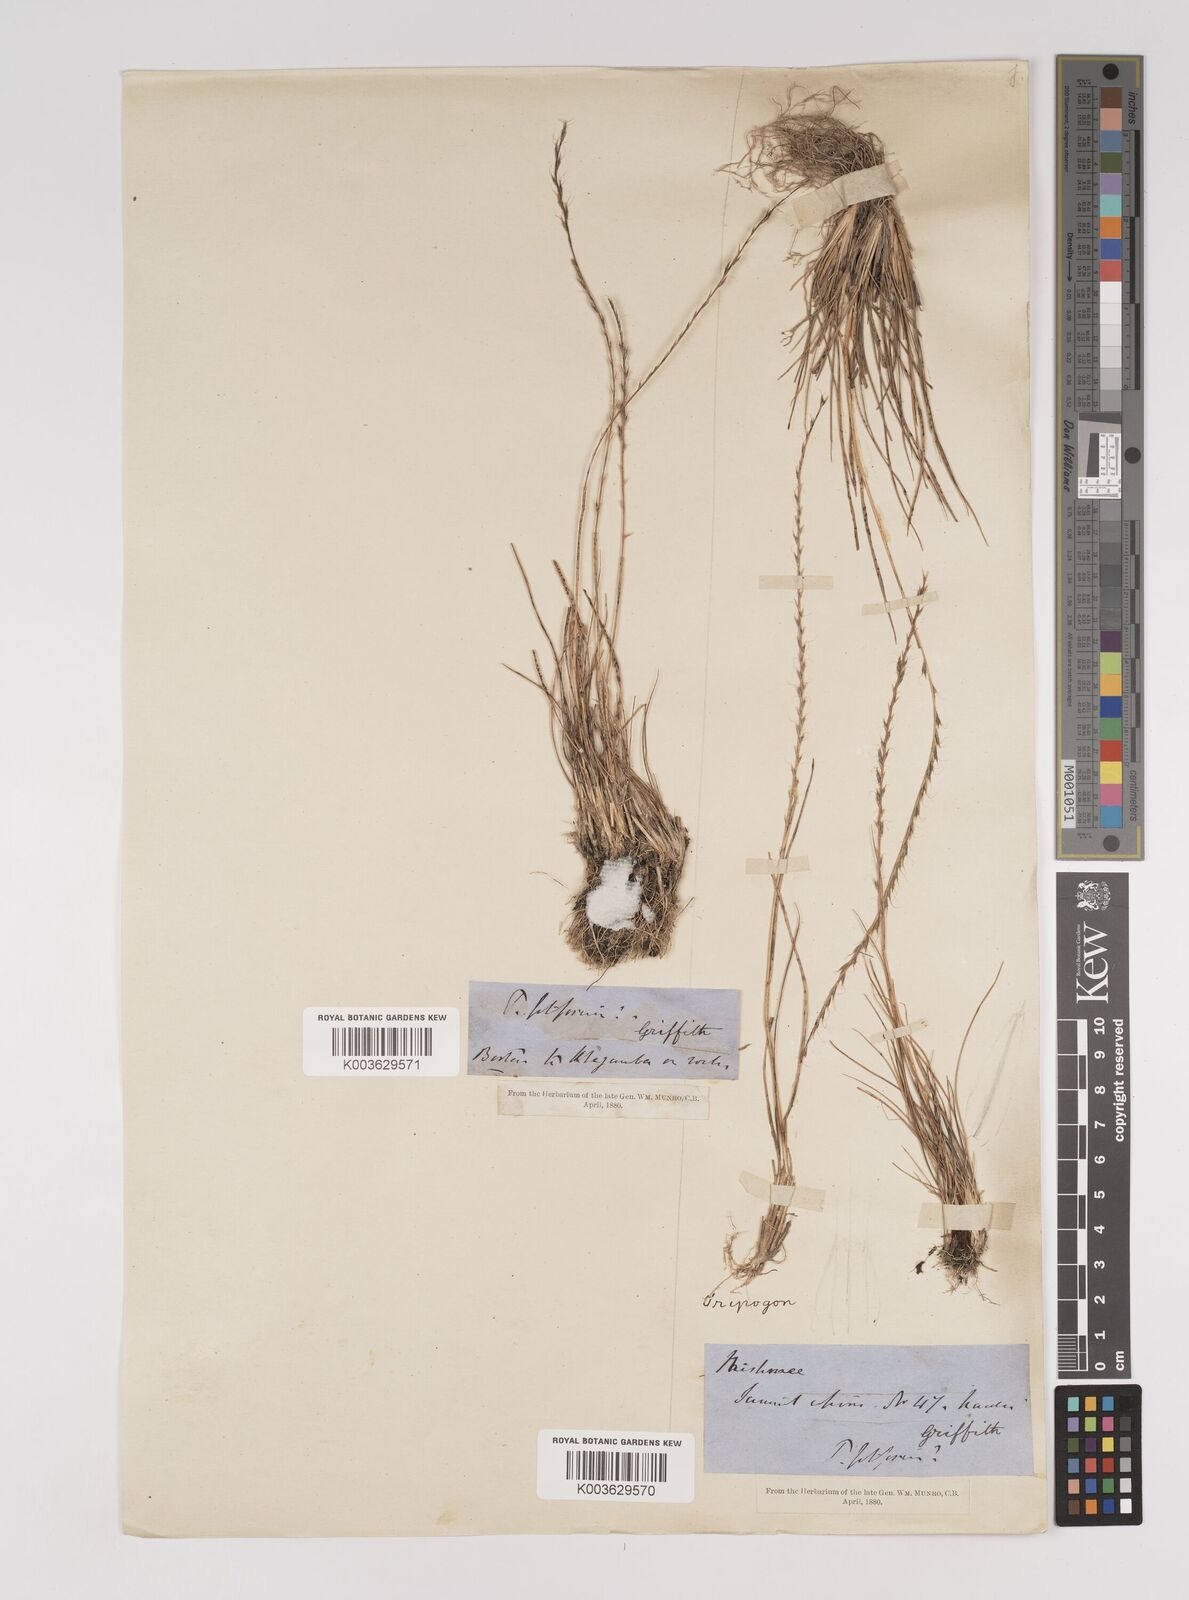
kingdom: Plantae
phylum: Tracheophyta
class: Liliopsida
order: Poales
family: Poaceae
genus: Tripogon
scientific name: Tripogon filiformis
